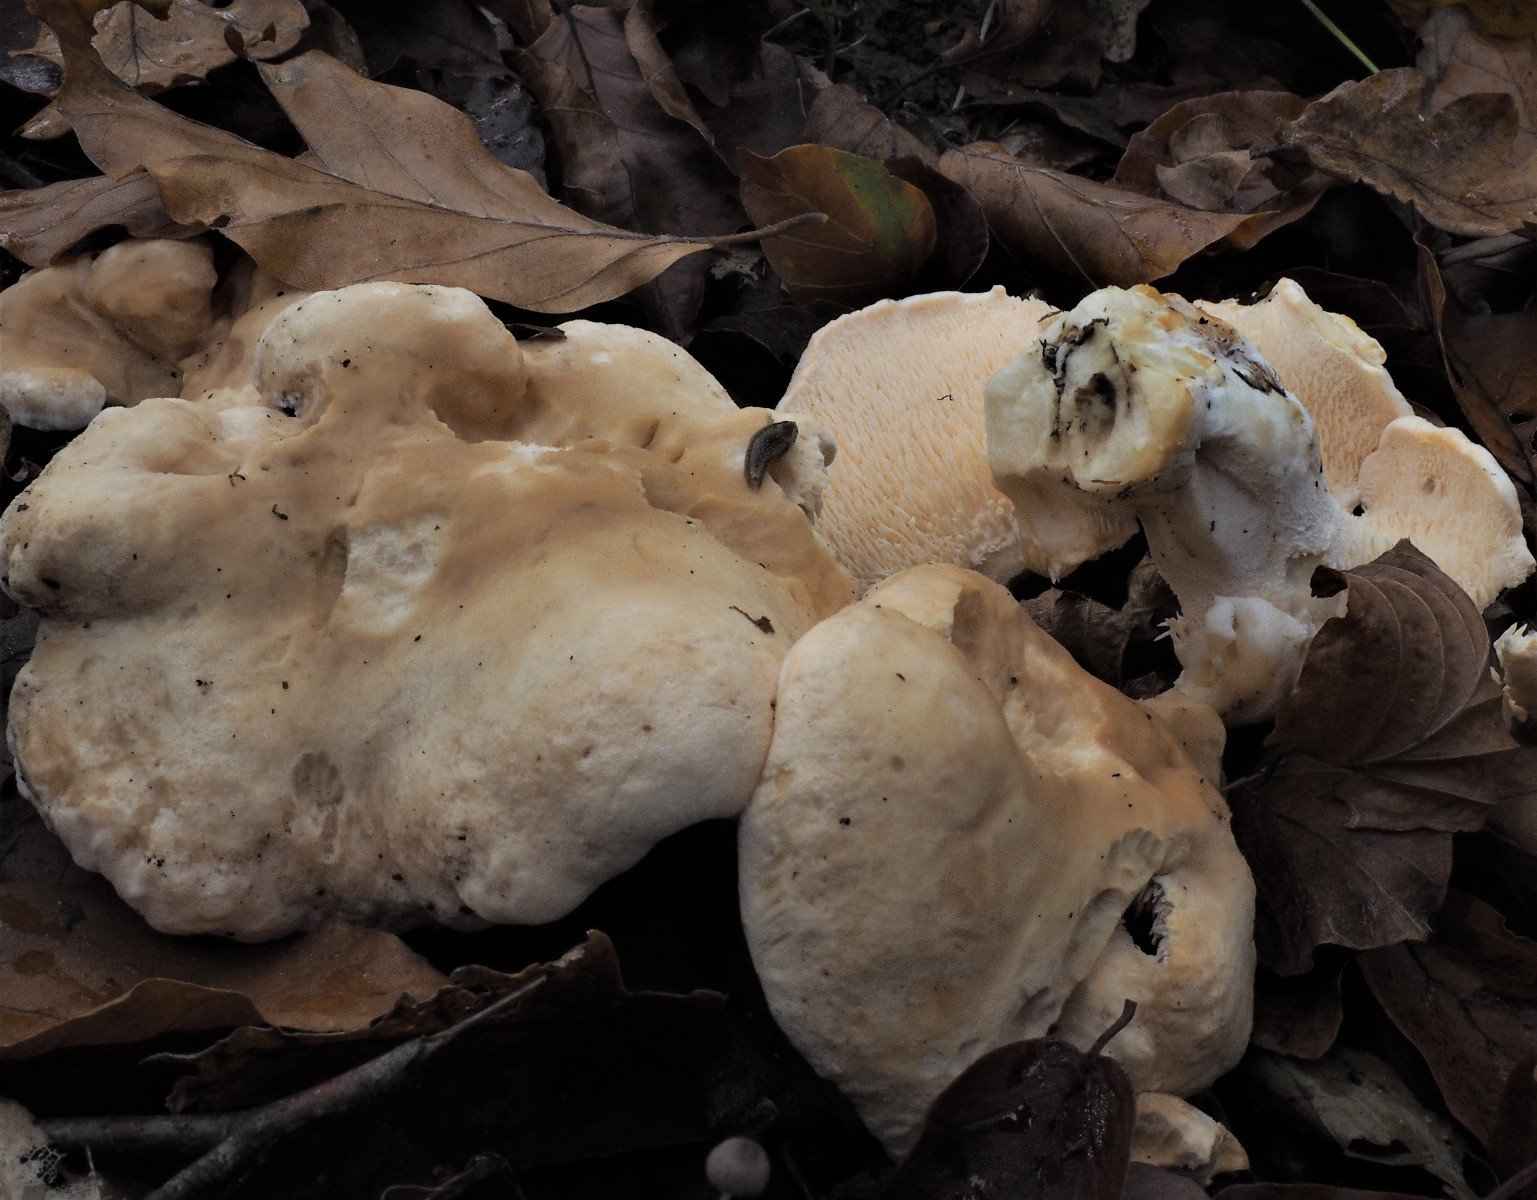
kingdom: Fungi
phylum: Basidiomycota
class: Agaricomycetes
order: Cantharellales
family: Hydnaceae
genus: Hydnum
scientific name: Hydnum repandum
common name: almindelig pigsvamp
